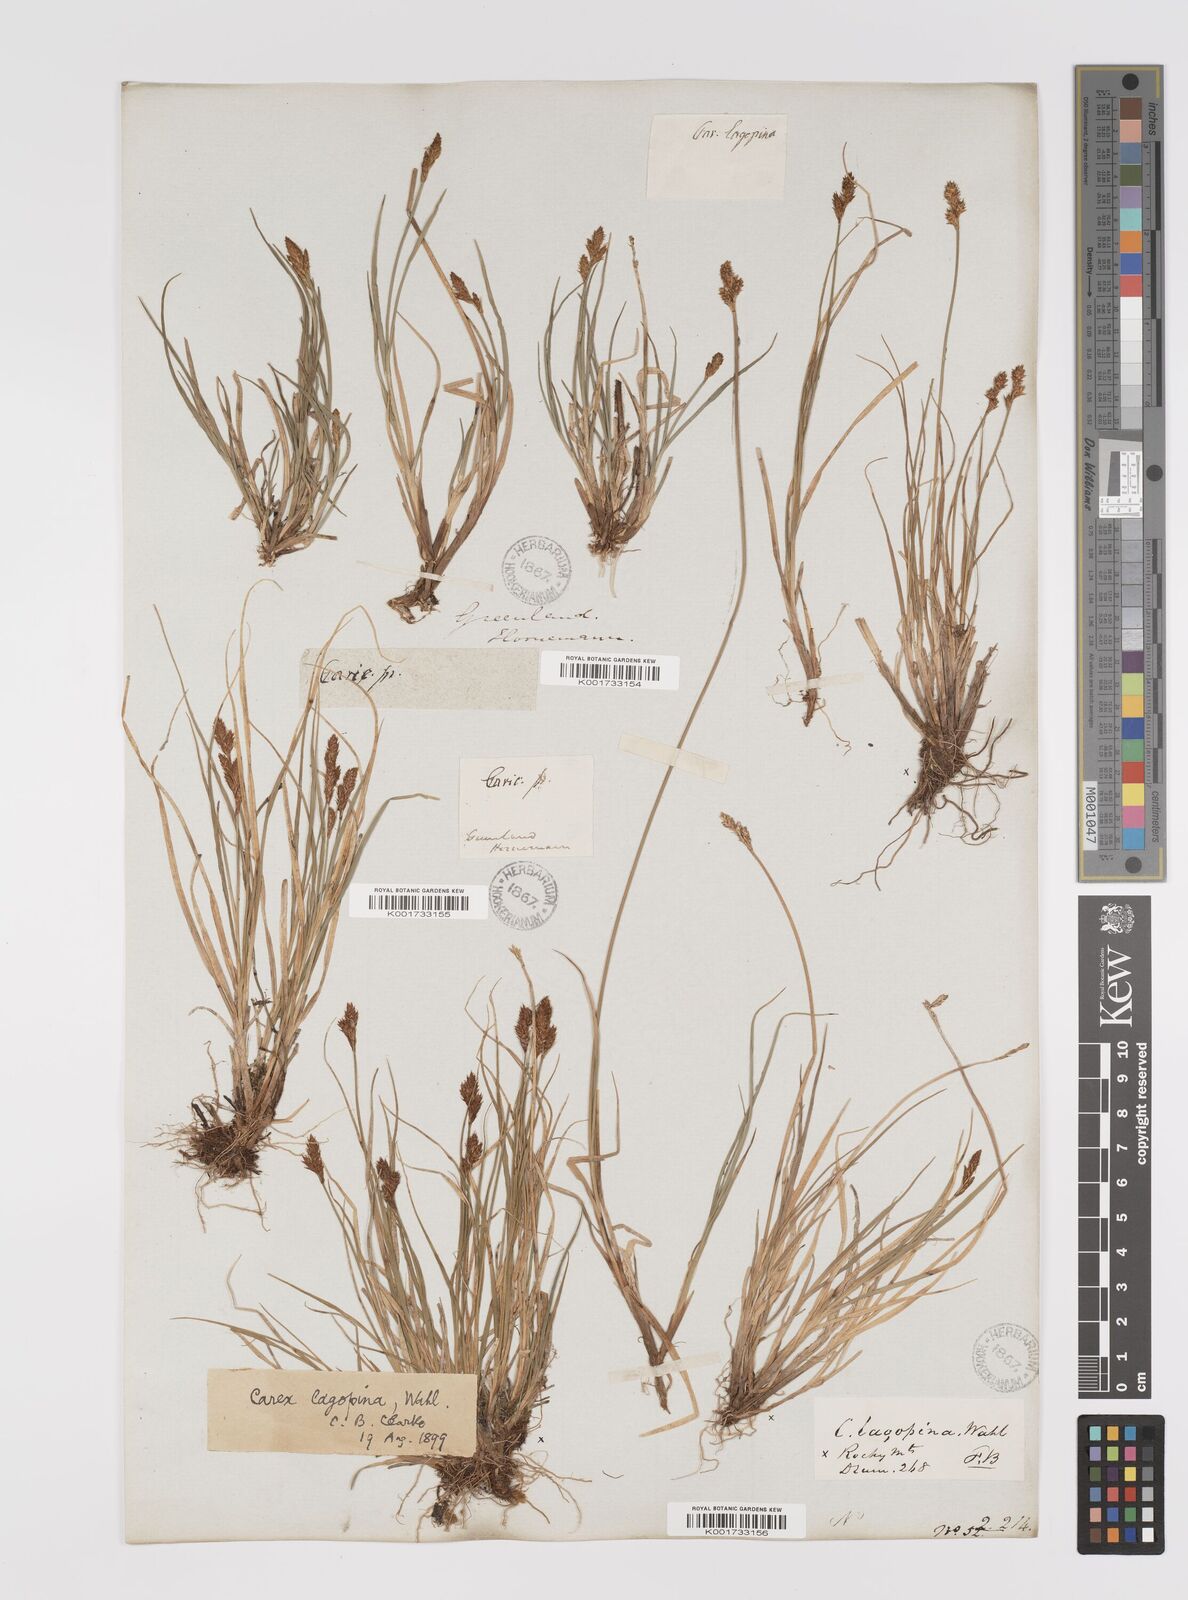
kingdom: Plantae
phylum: Tracheophyta
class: Liliopsida
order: Poales
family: Cyperaceae
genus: Carex
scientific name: Carex lachenalii
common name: Hare's-foot sedge
